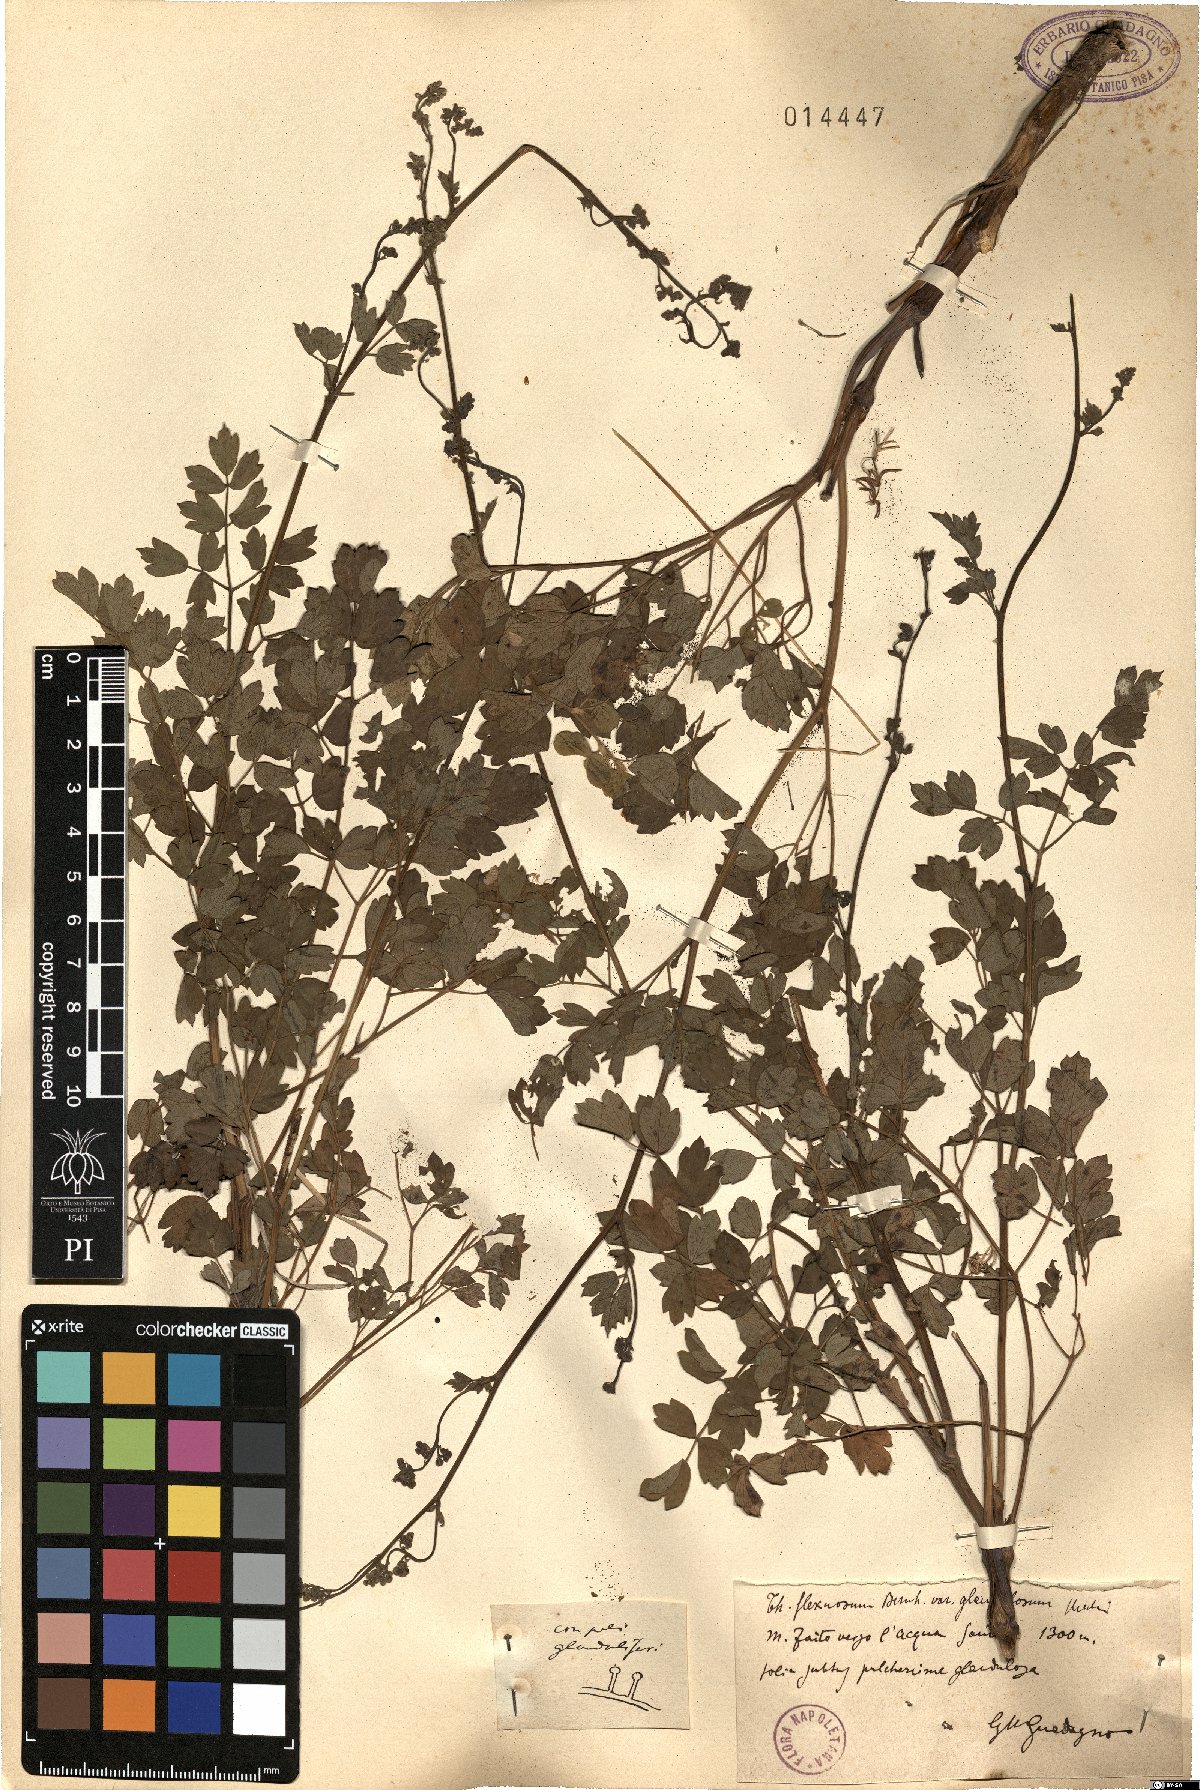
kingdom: Plantae
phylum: Tracheophyta
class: Magnoliopsida
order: Ranunculales
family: Ranunculaceae
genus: Thalictrum
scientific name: Thalictrum minus
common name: Lesser meadow-rue
